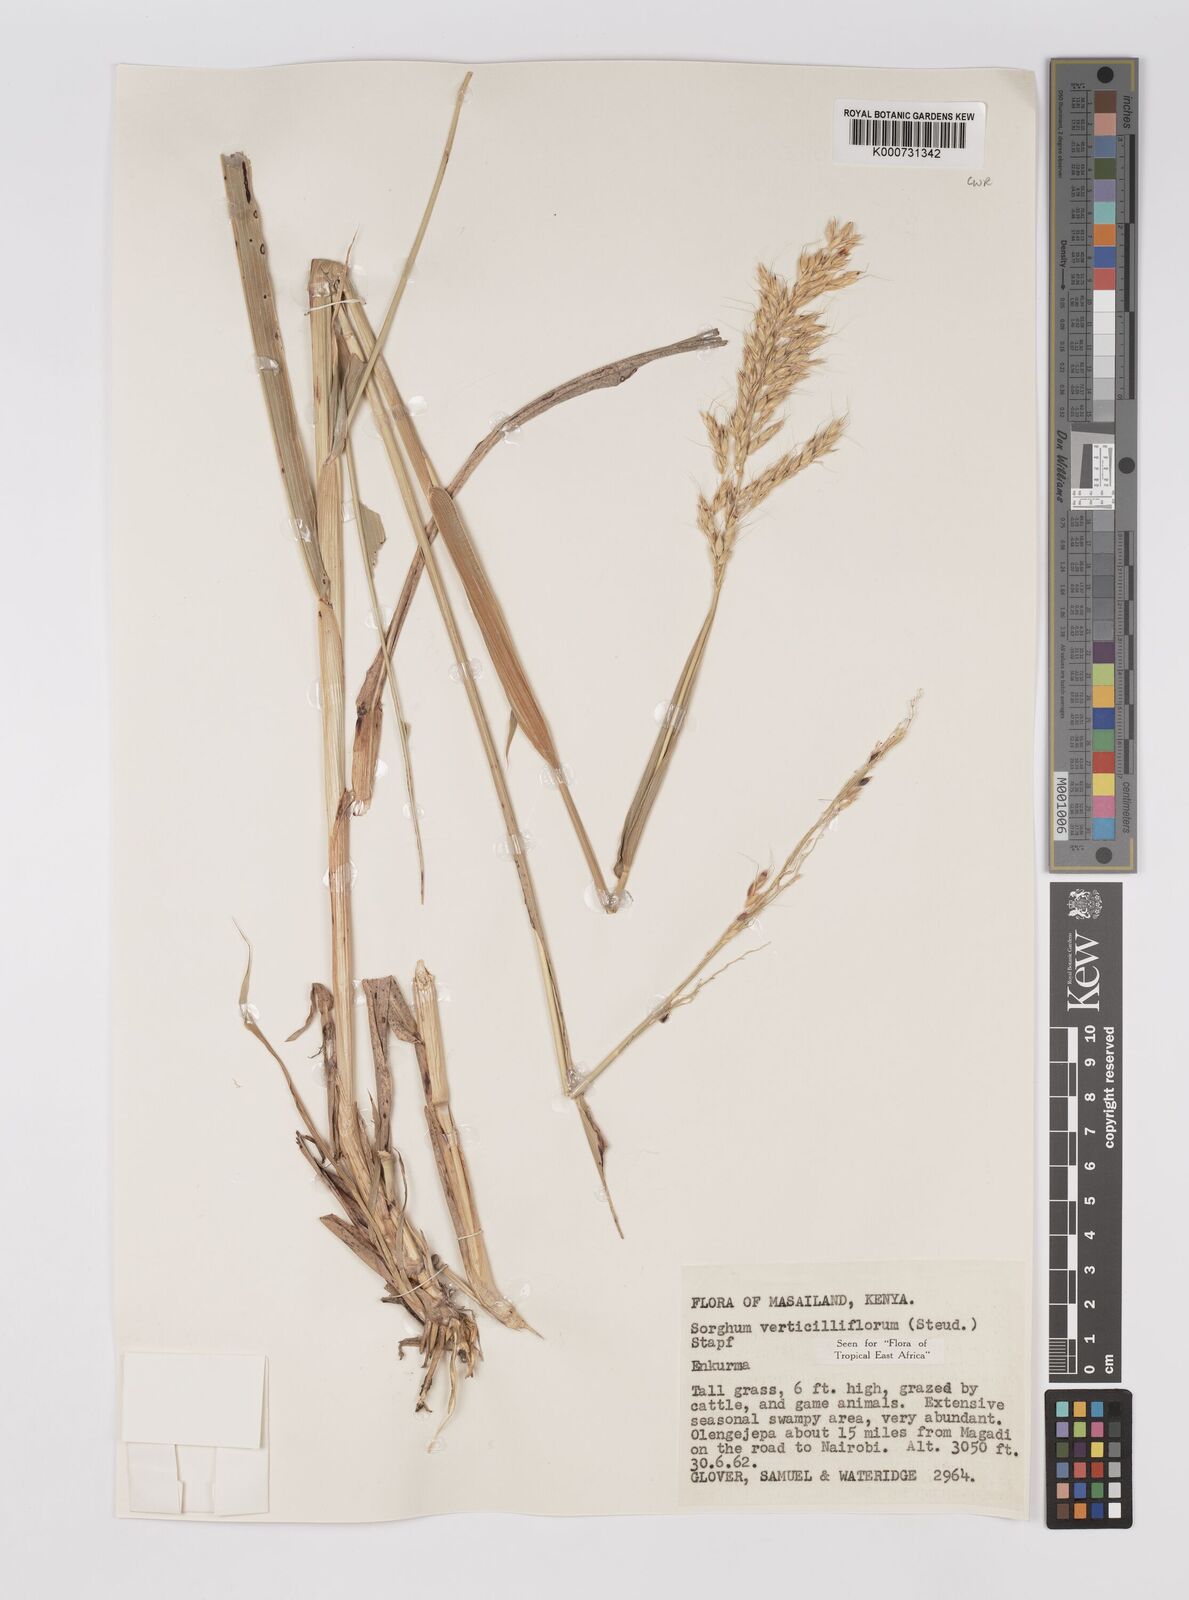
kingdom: Plantae
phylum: Tracheophyta
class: Liliopsida
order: Poales
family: Poaceae
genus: Sorghum
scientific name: Sorghum arundinaceum
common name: Sorghum
